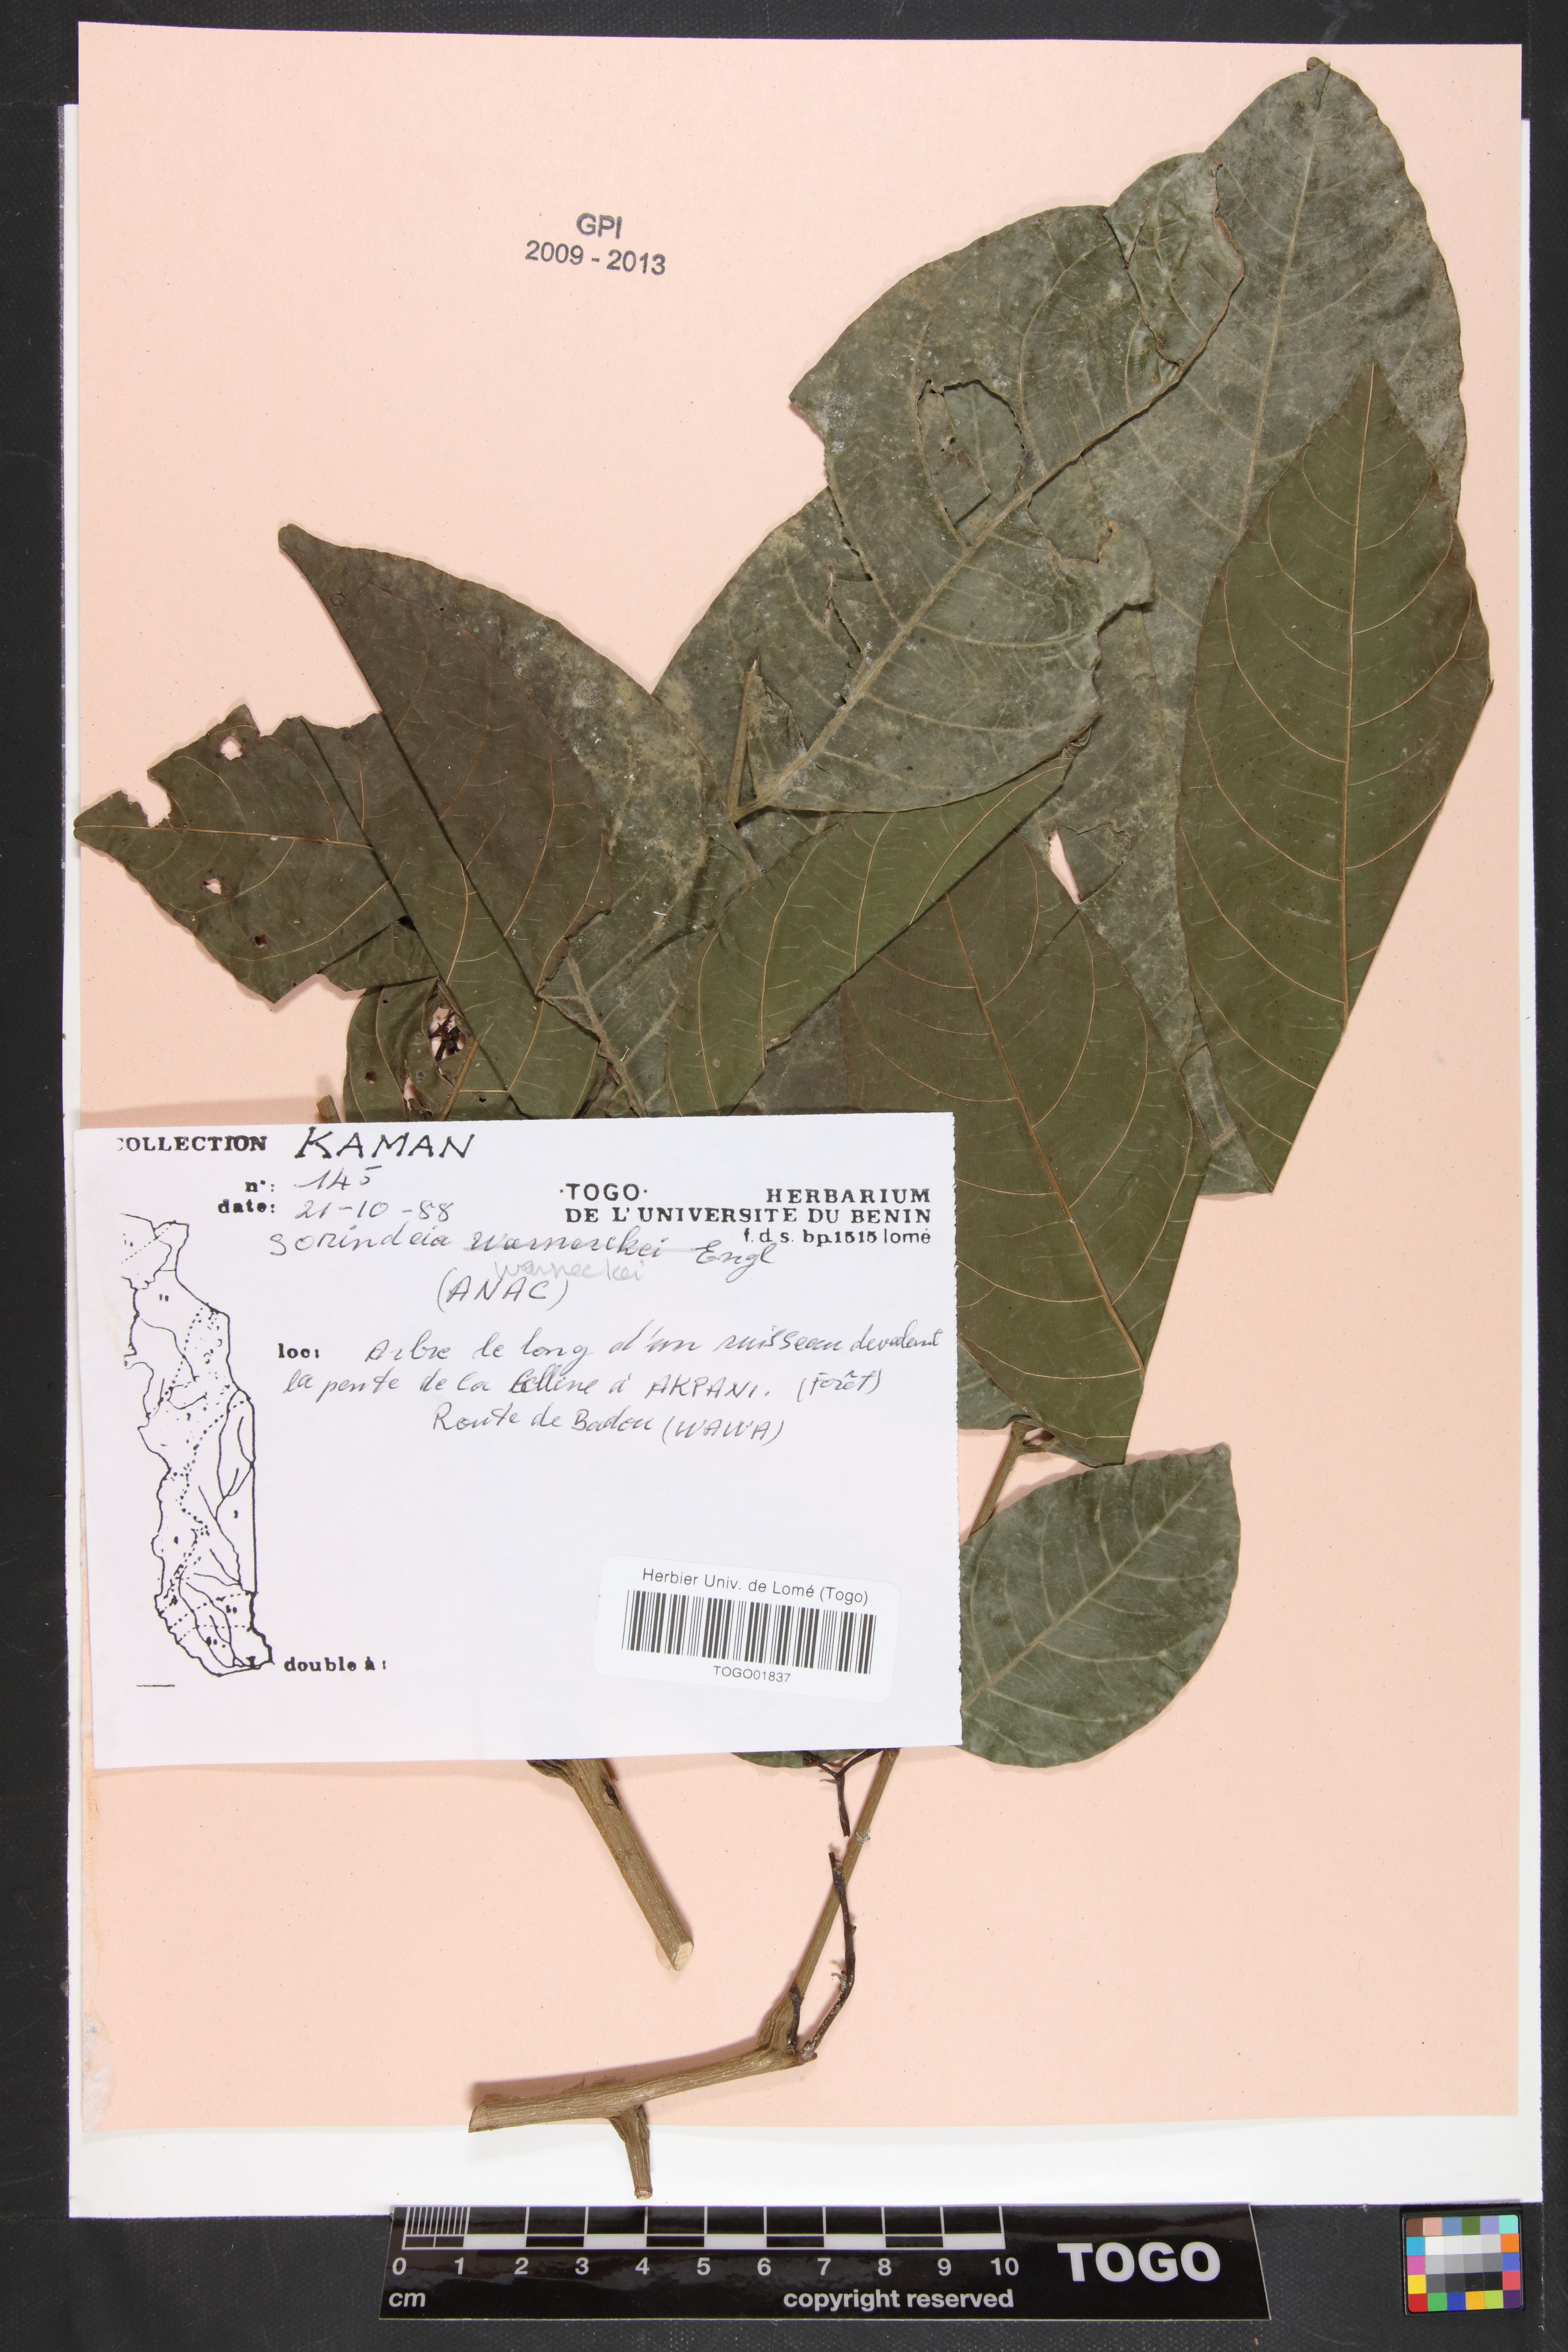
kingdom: Plantae
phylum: Tracheophyta
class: Magnoliopsida
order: Sapindales
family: Anacardiaceae
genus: Sorindeia
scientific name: Sorindeia grandifolia
